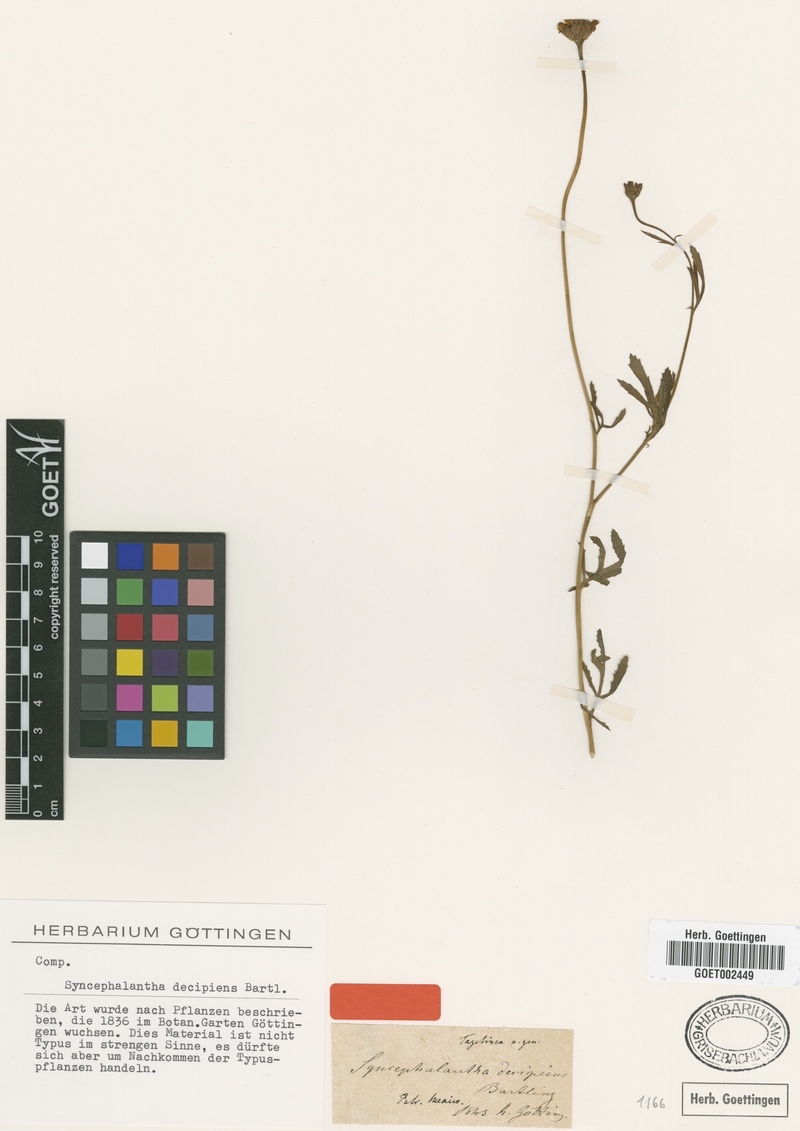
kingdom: Plantae
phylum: Tracheophyta
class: Magnoliopsida
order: Asterales
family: Asteraceae
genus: Dyssodia
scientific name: Dyssodia decipiens
